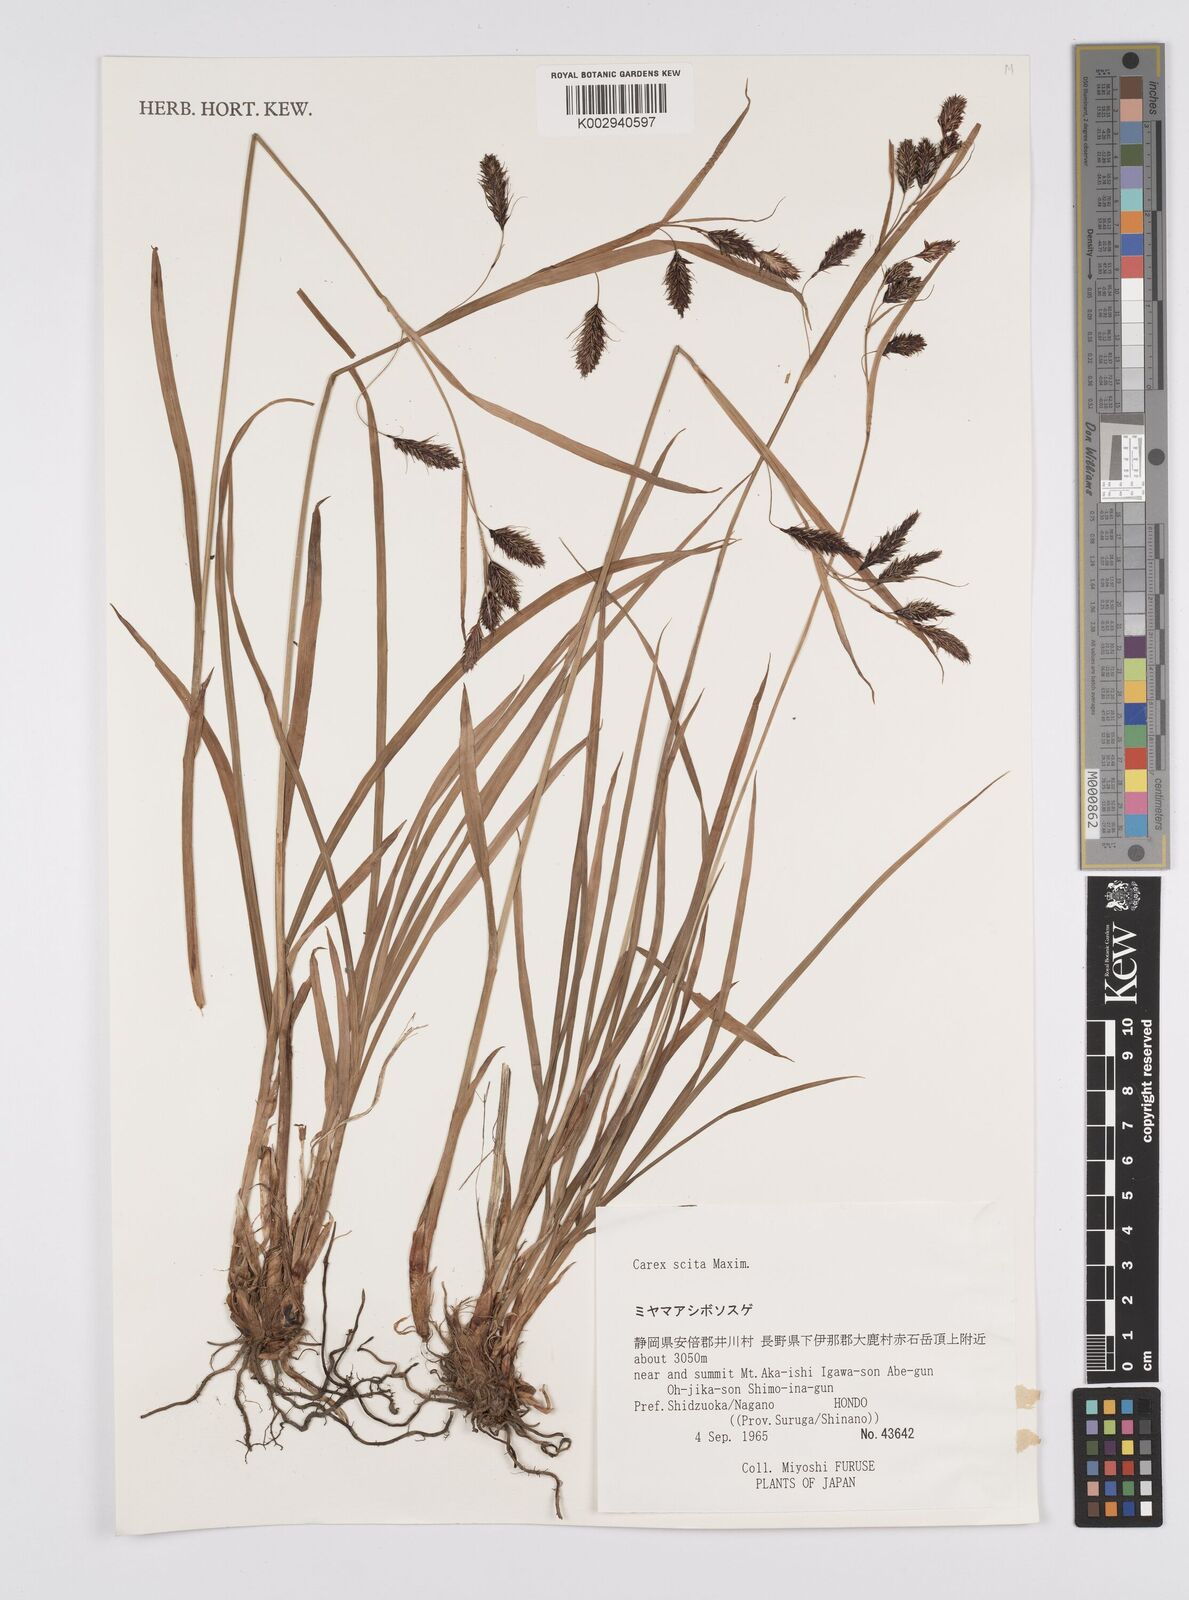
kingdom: Plantae
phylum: Tracheophyta
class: Liliopsida
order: Poales
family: Cyperaceae
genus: Carex
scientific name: Carex scita
